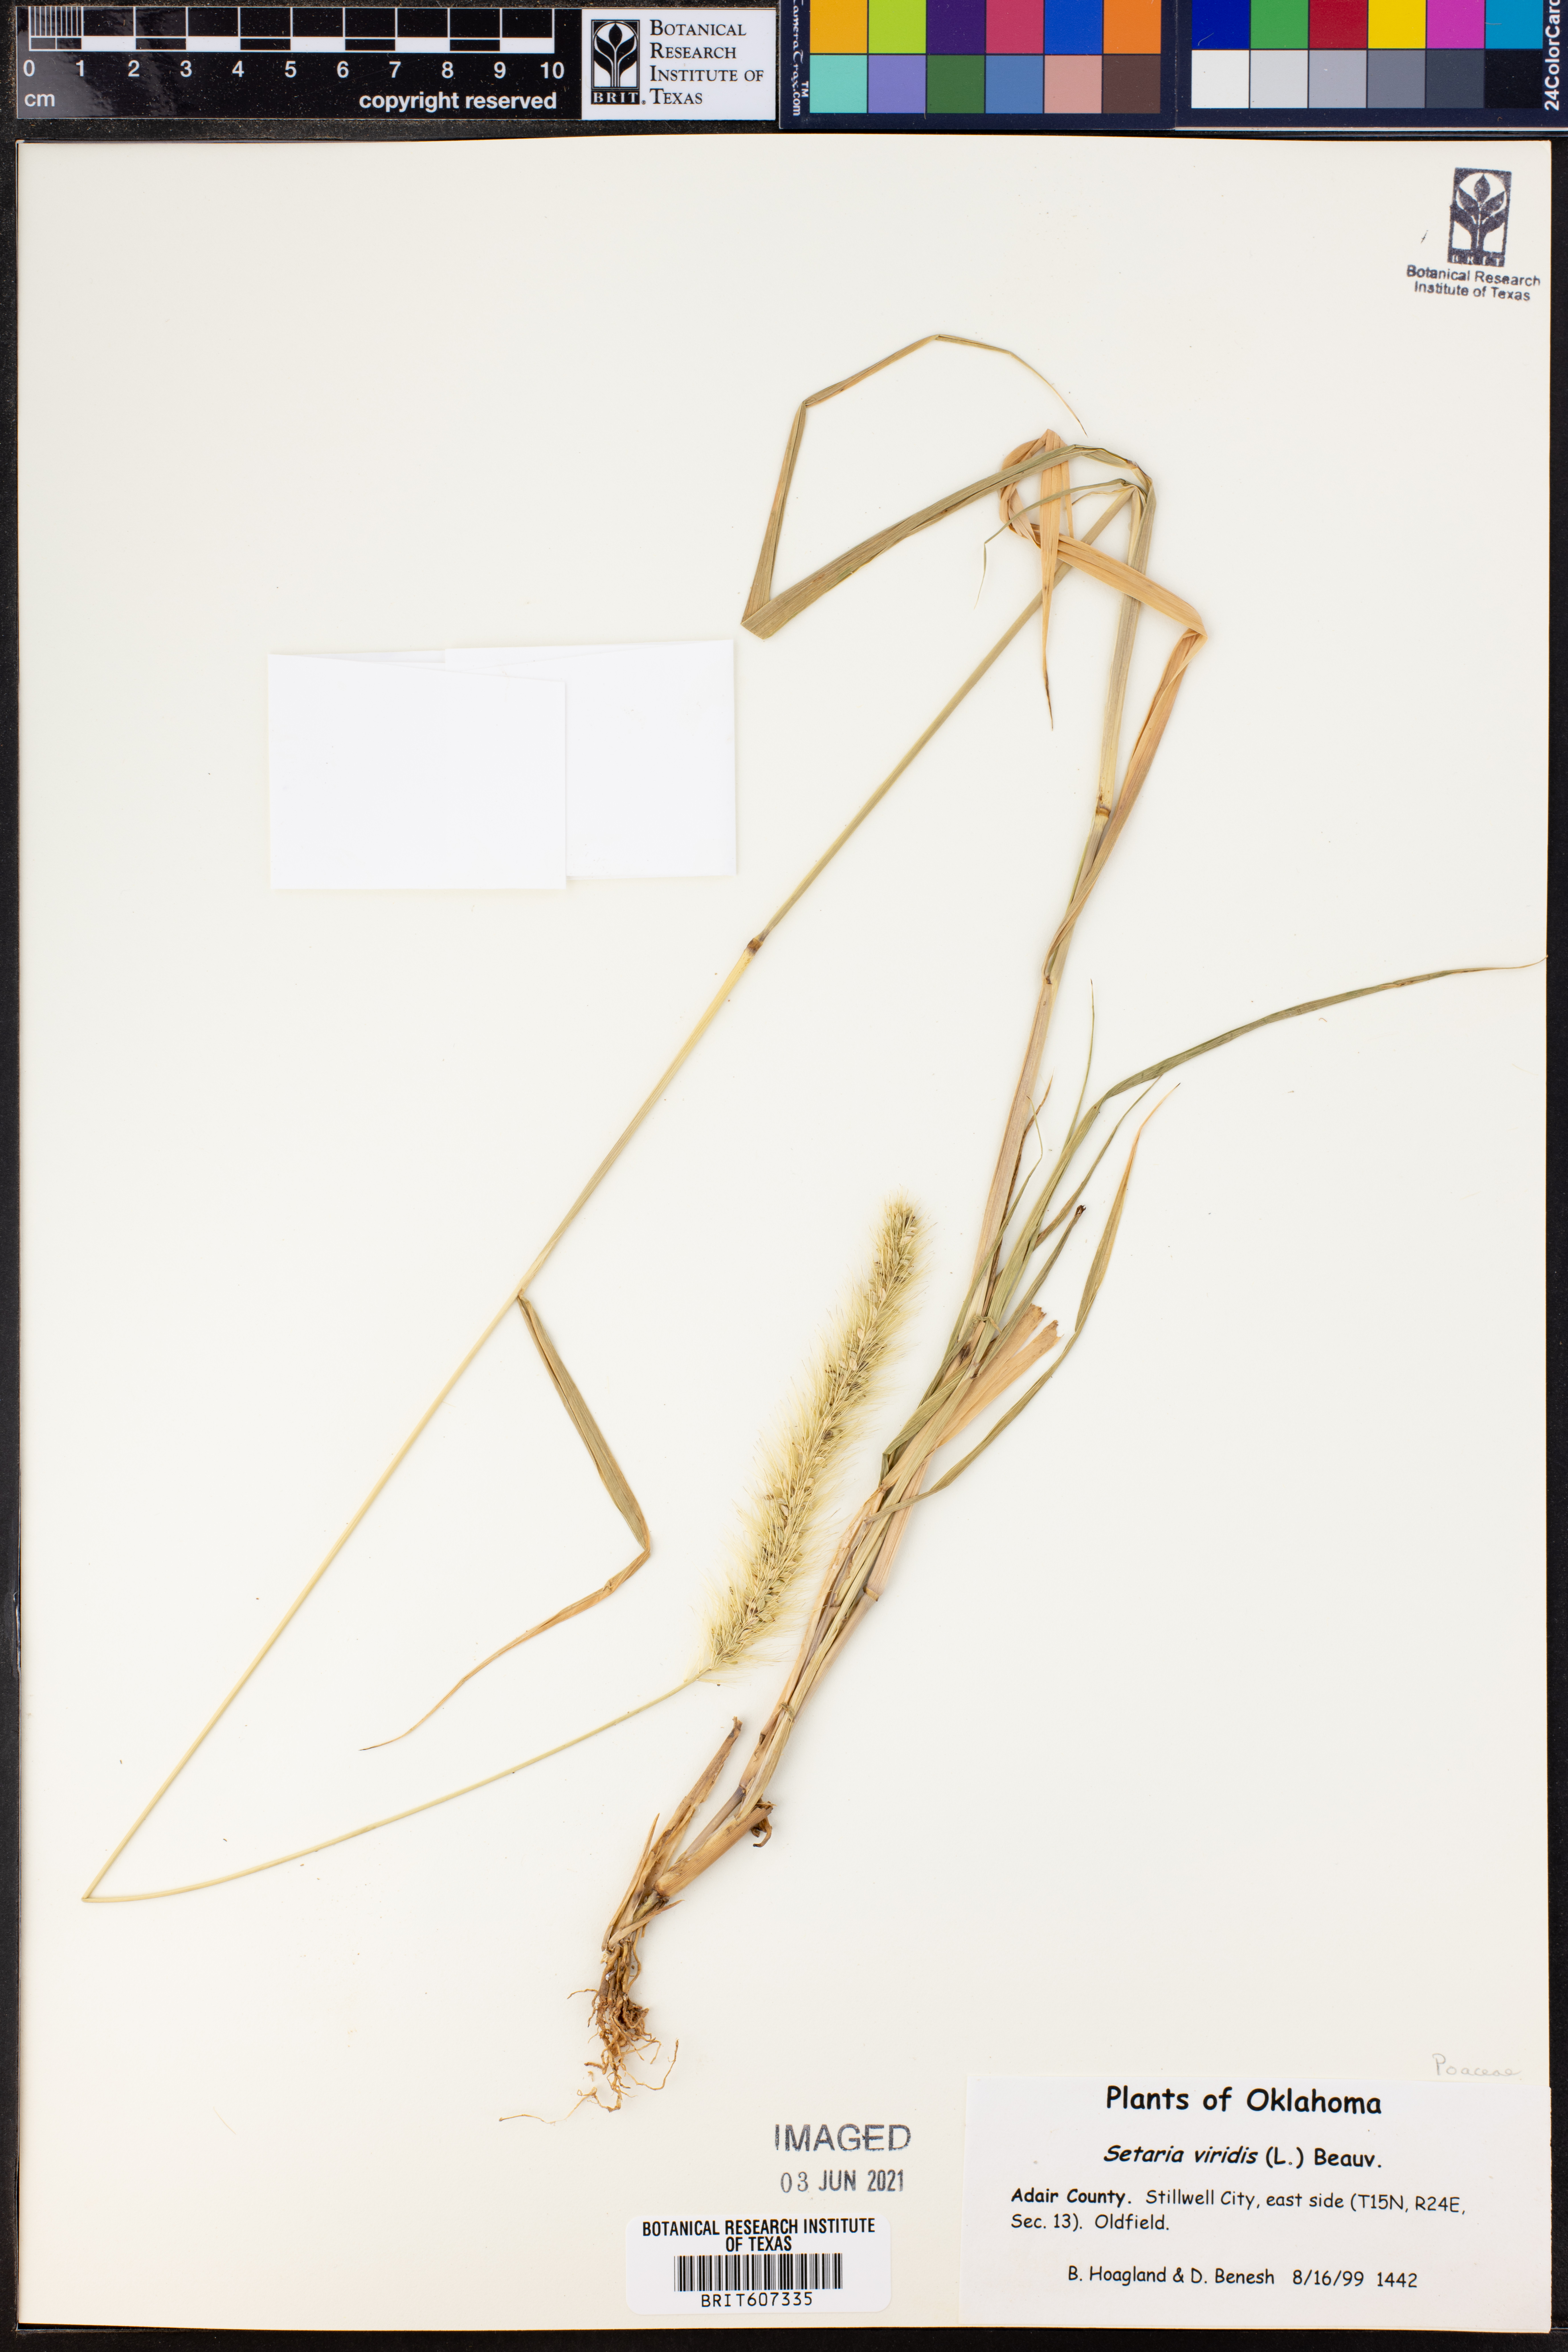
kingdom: Plantae
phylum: Tracheophyta
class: Liliopsida
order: Poales
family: Poaceae
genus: Setaria
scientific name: Setaria viridis
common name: Green bristlegrass
